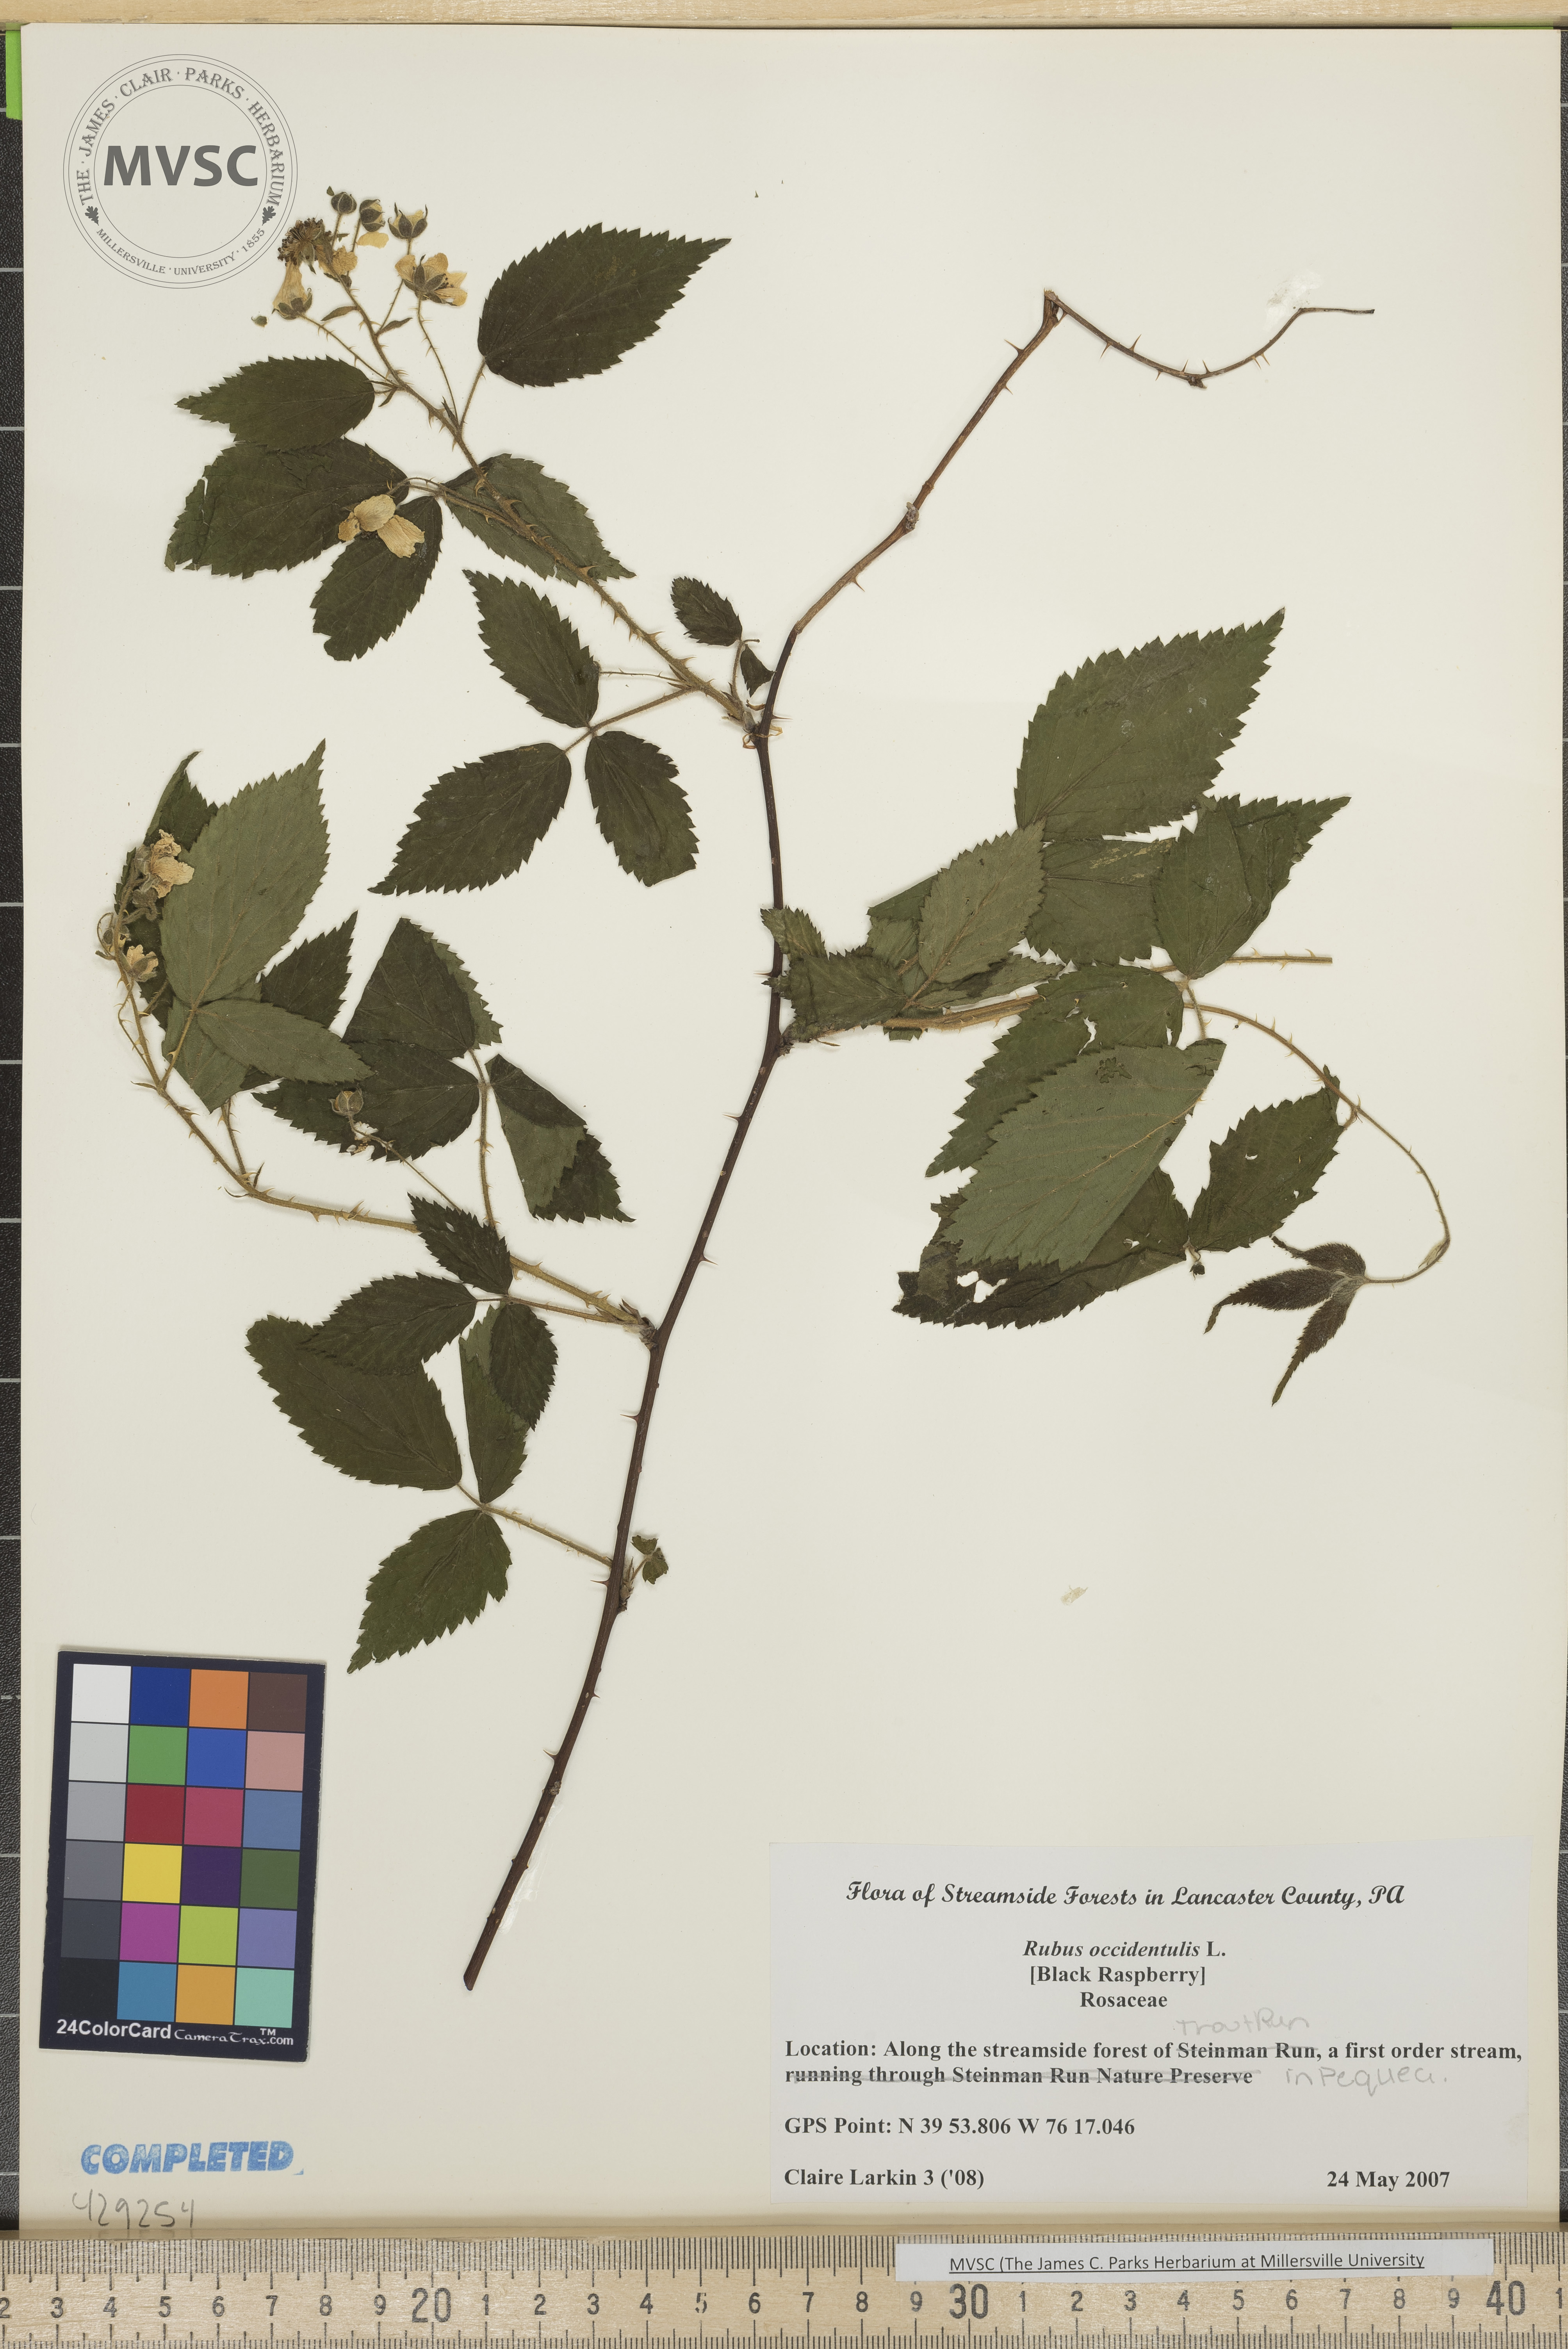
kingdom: Plantae
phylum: Tracheophyta
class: Magnoliopsida
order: Rosales
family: Rosaceae
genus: Rubus
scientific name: Rubus occidentalis
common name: Black raspberry
